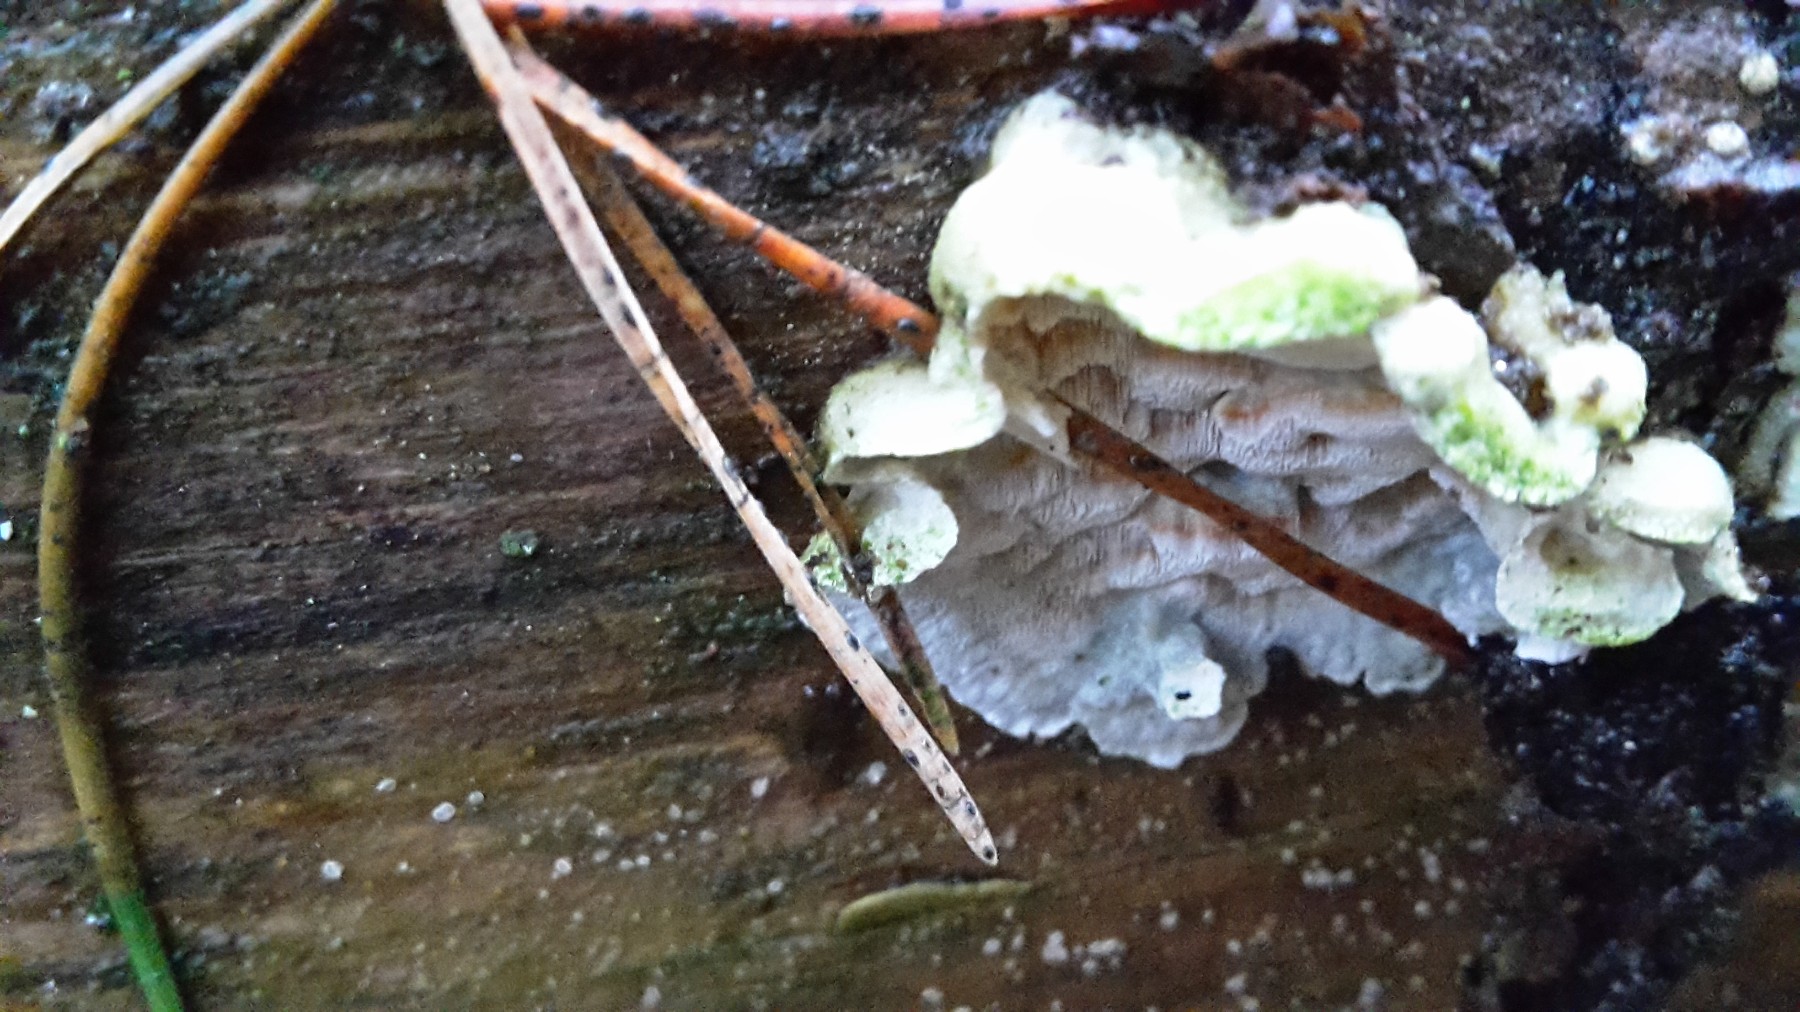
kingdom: Fungi
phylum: Basidiomycota
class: Agaricomycetes
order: Polyporales
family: Incrustoporiaceae
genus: Skeletocutis
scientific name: Skeletocutis amorpha
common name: orange krystalporesvamp
